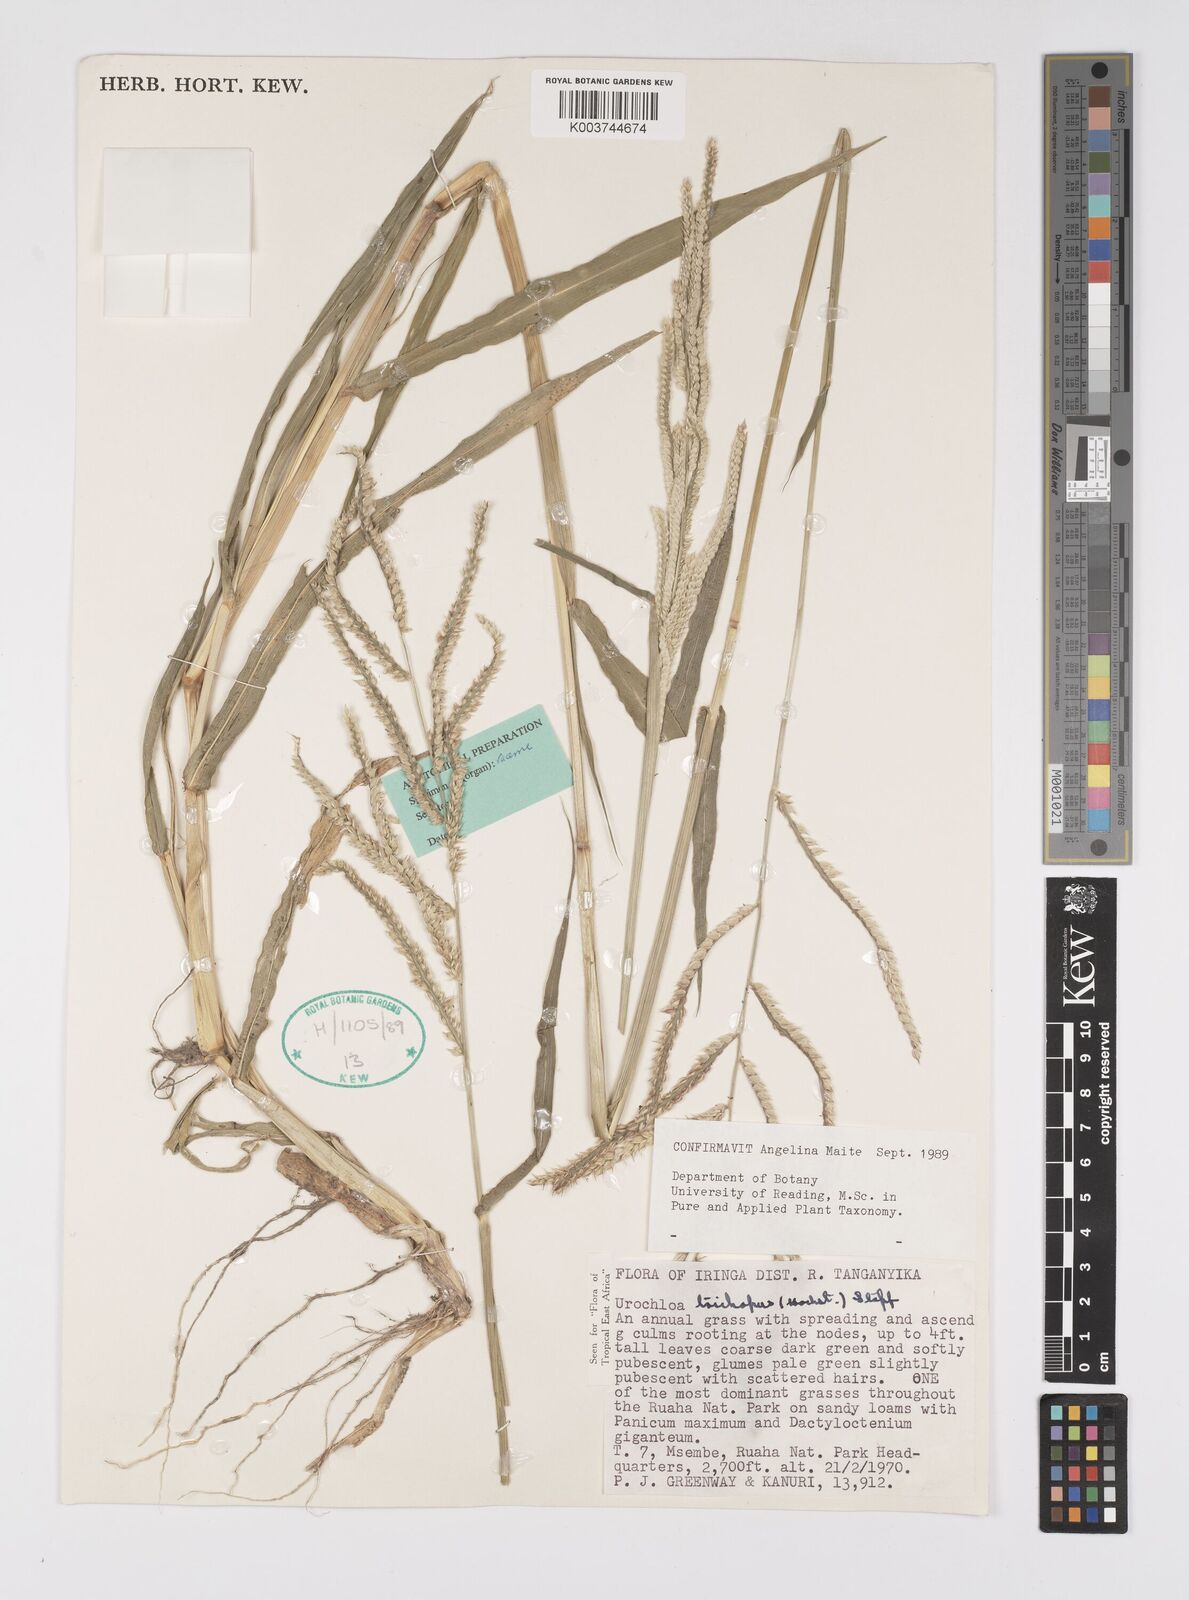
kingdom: Plantae
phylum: Tracheophyta
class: Liliopsida
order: Poales
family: Poaceae
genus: Urochloa
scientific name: Urochloa trichopus
